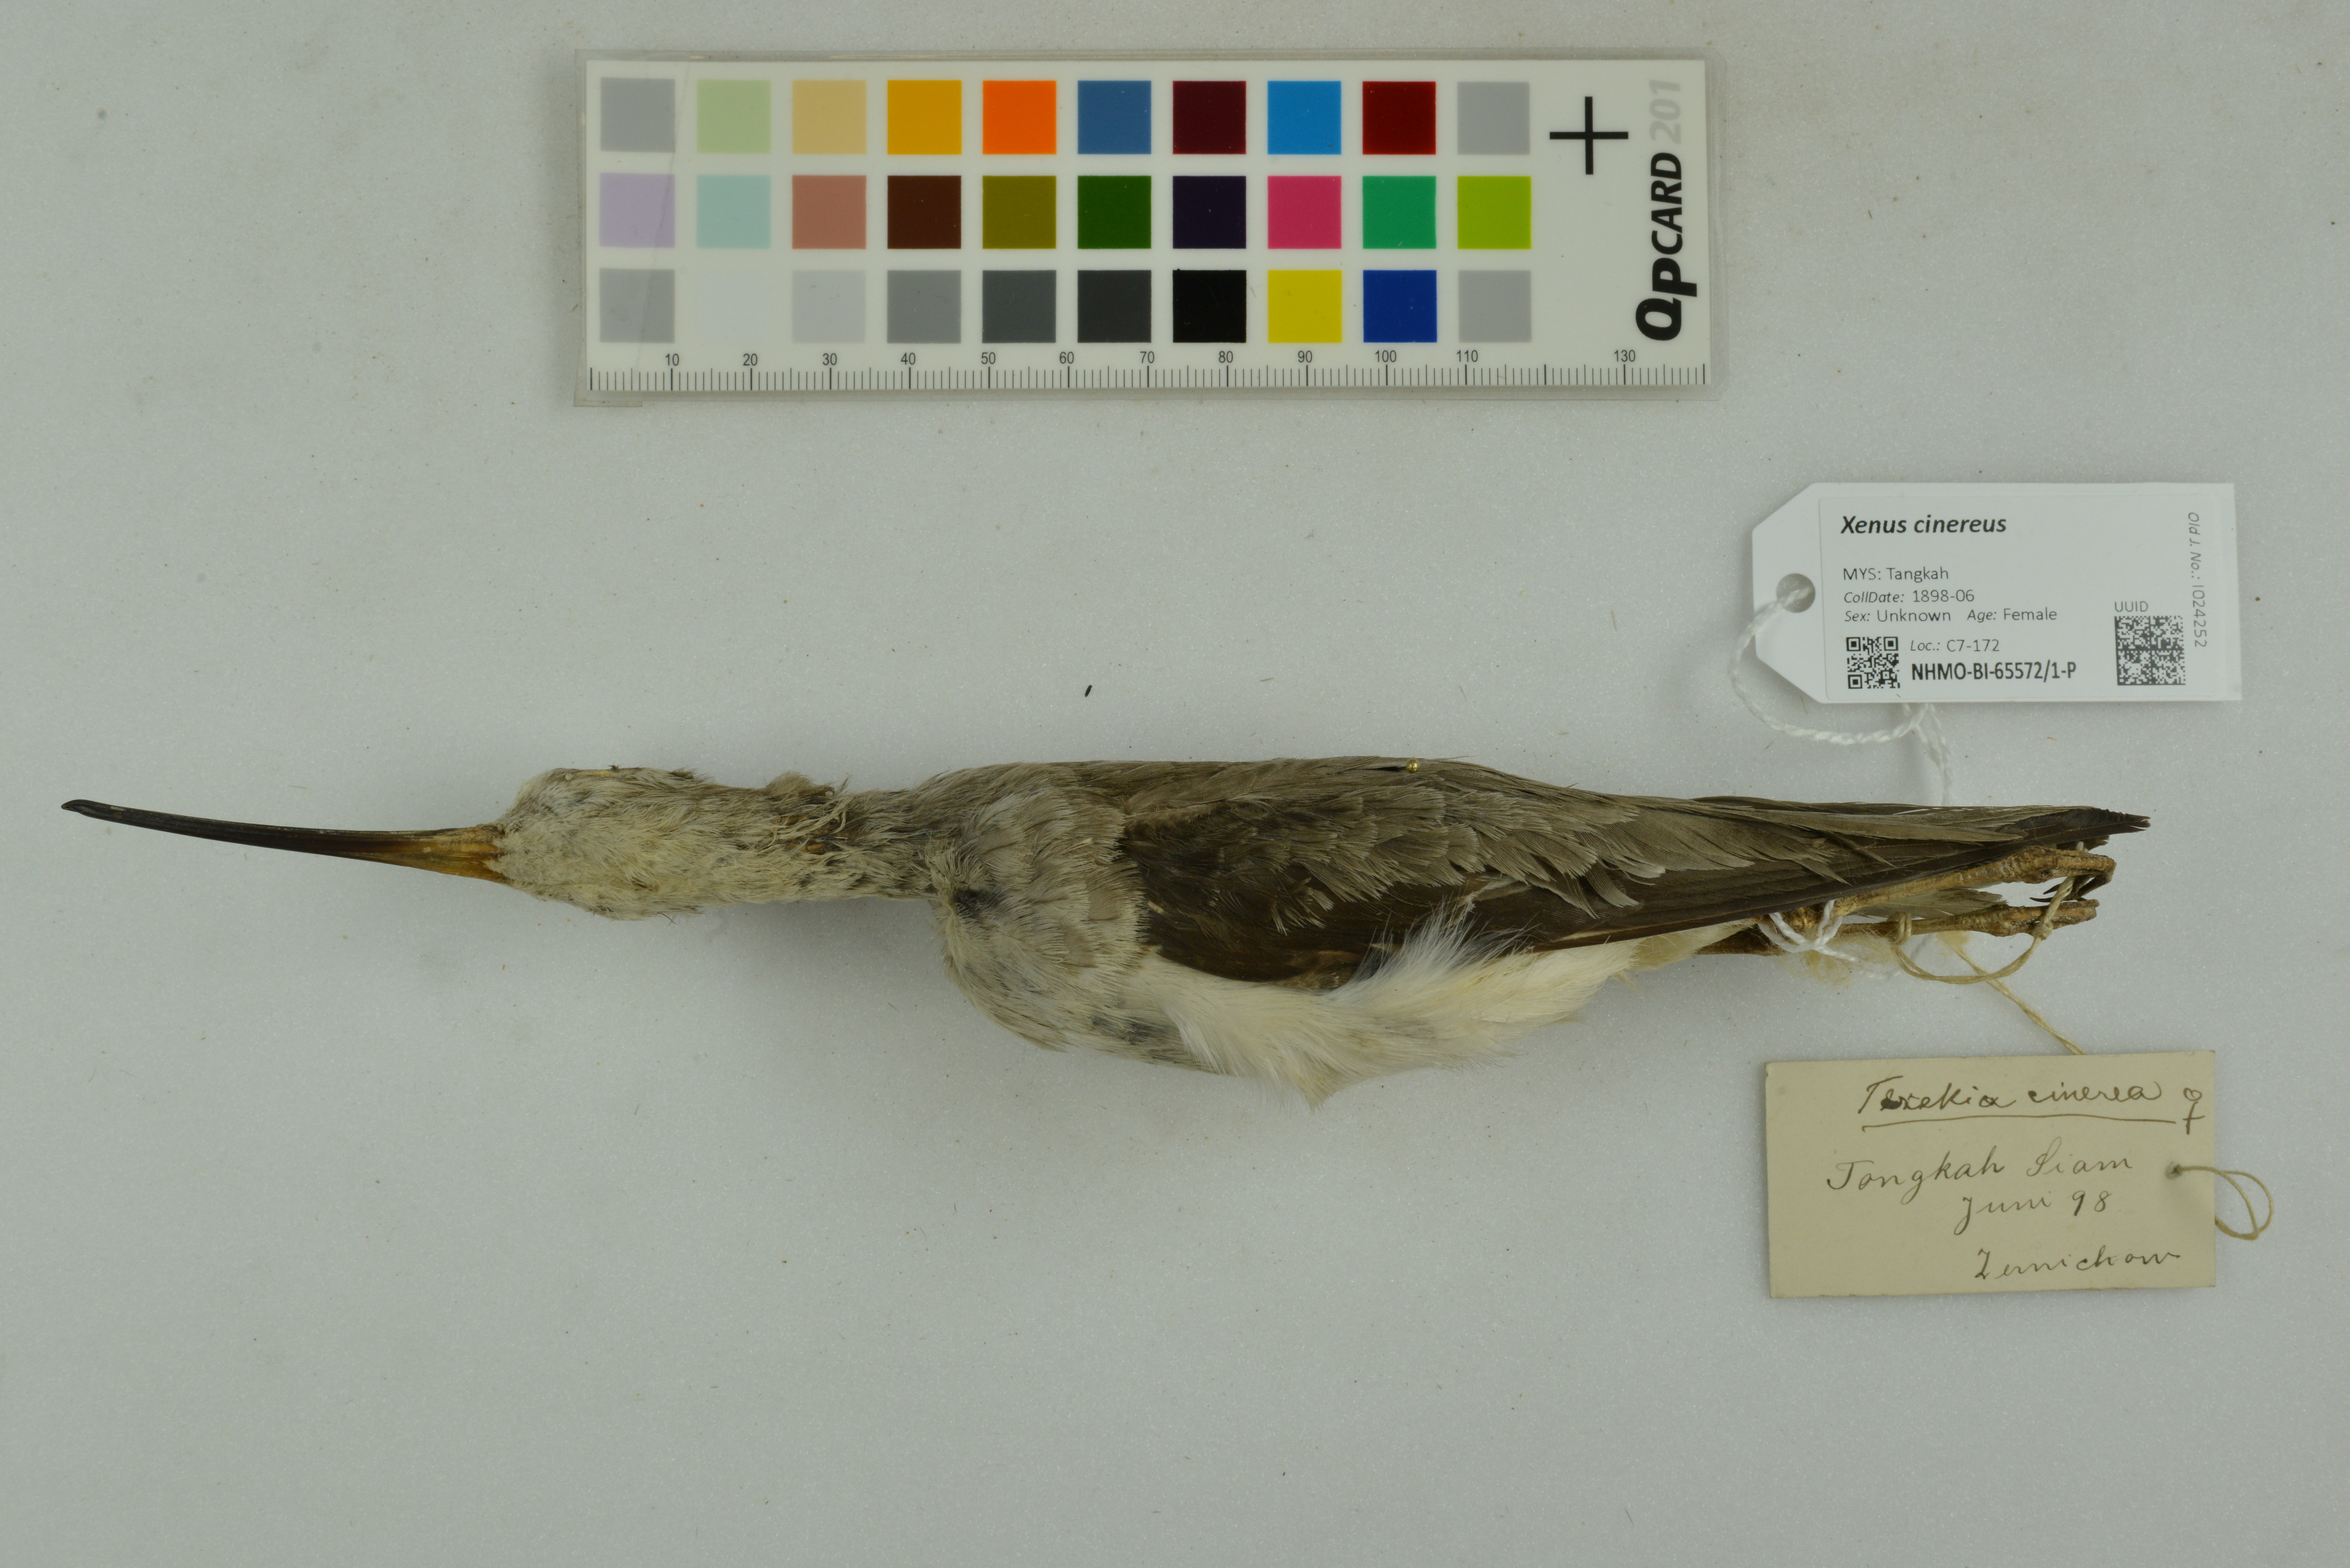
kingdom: Animalia
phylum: Chordata
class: Aves
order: Charadriiformes
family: Scolopacidae
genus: Xenus
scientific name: Xenus cinereus
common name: Terek sandpiper
